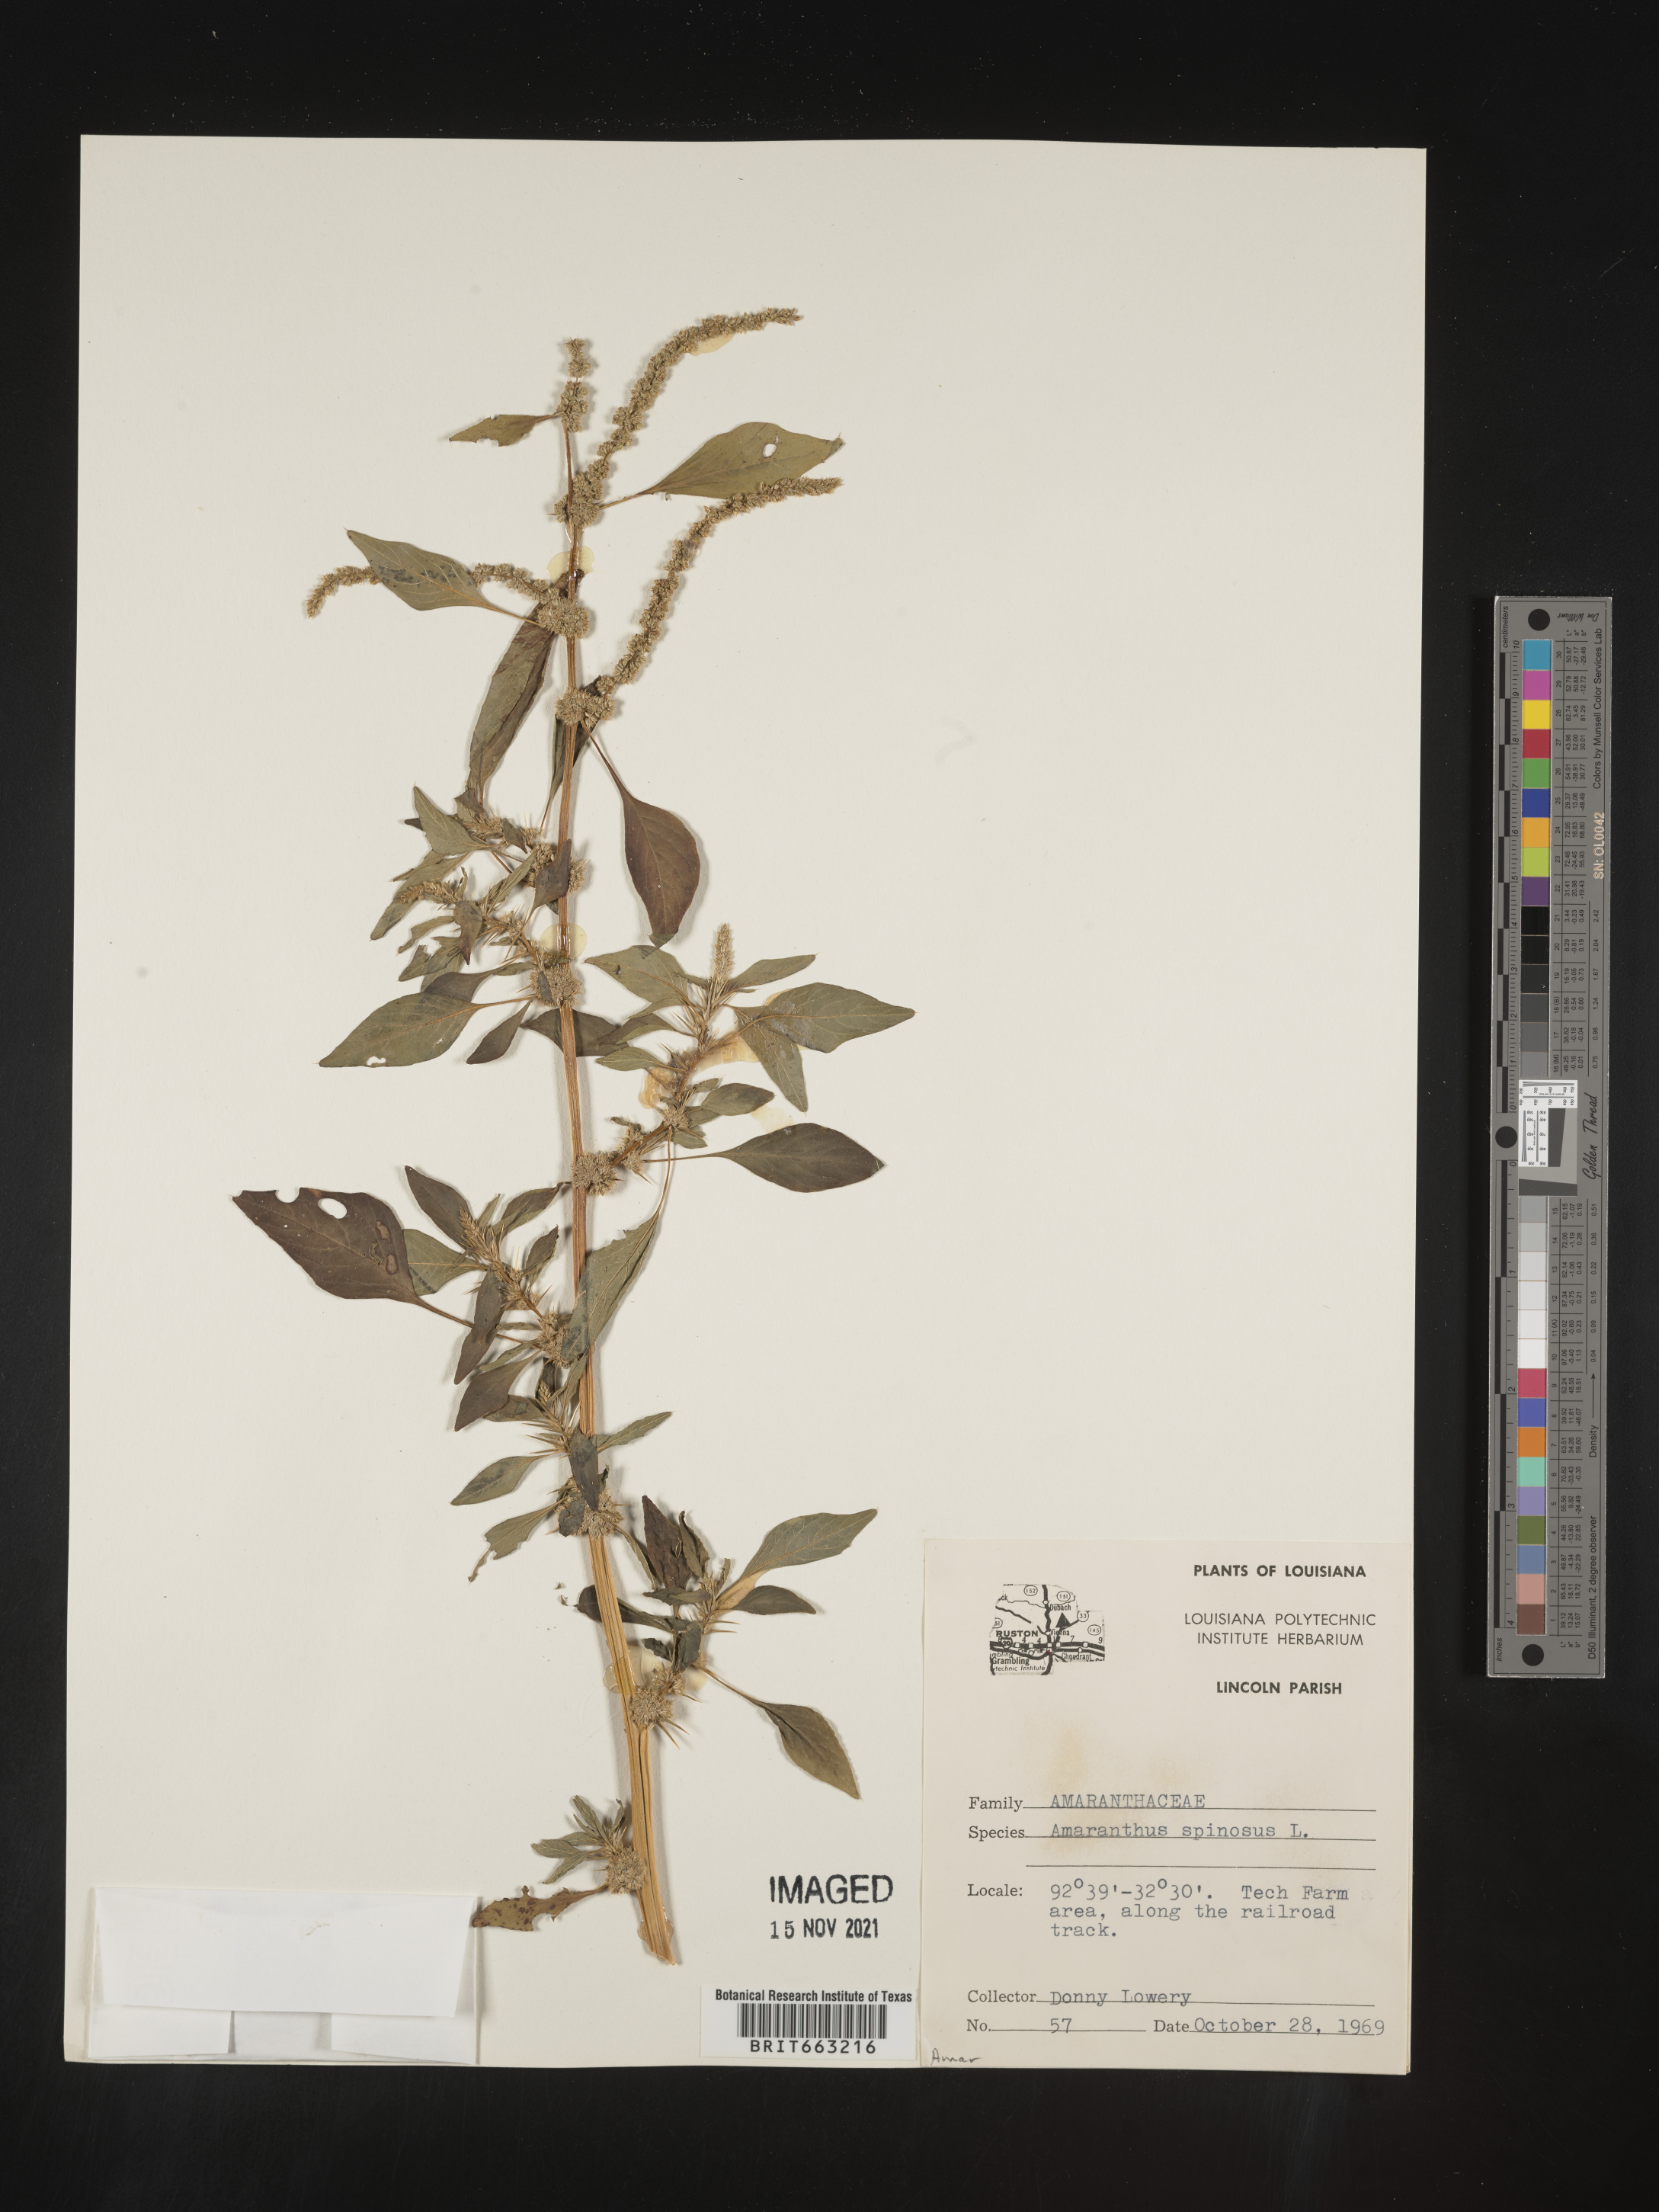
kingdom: Plantae
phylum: Tracheophyta
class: Magnoliopsida
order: Caryophyllales
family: Amaranthaceae
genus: Amaranthus
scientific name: Amaranthus spinosus
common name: Spiny amaranth
